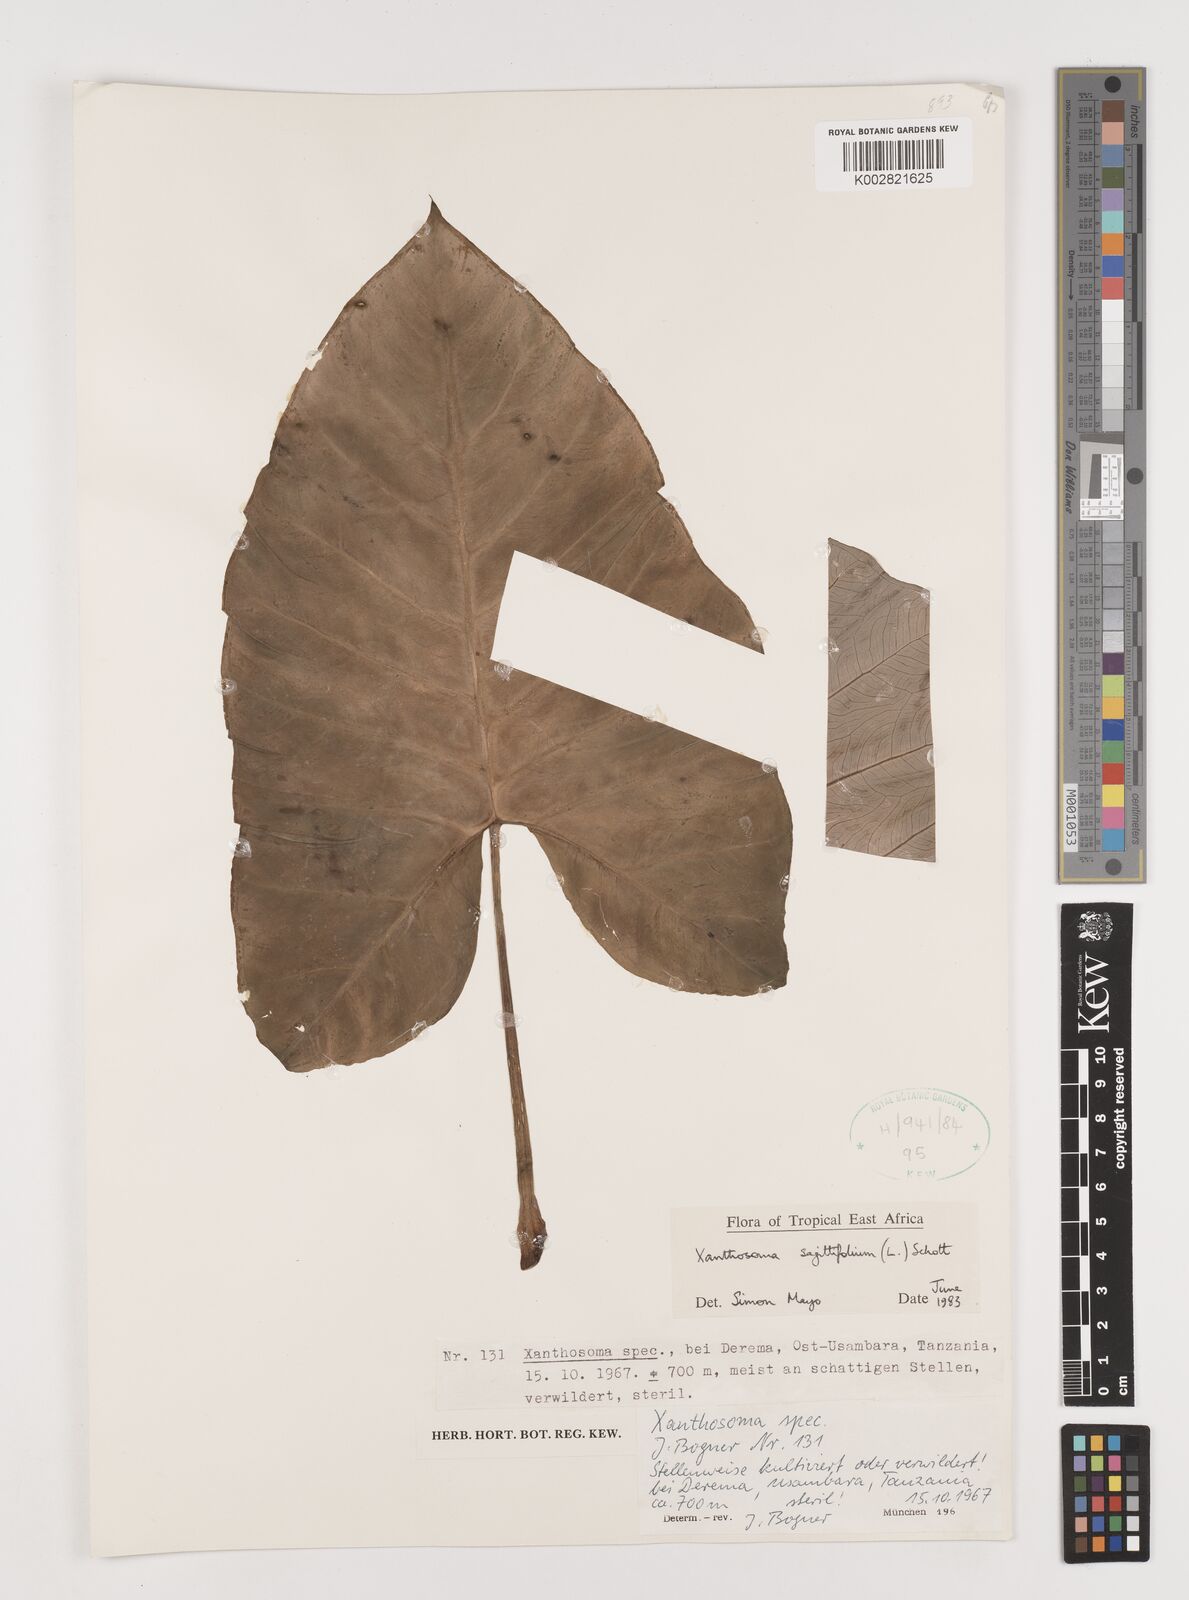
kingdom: Plantae
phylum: Tracheophyta
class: Liliopsida
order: Alismatales
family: Araceae
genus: Xanthosoma
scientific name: Xanthosoma sagittifolium
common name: Arrowleaf elephant's ear
